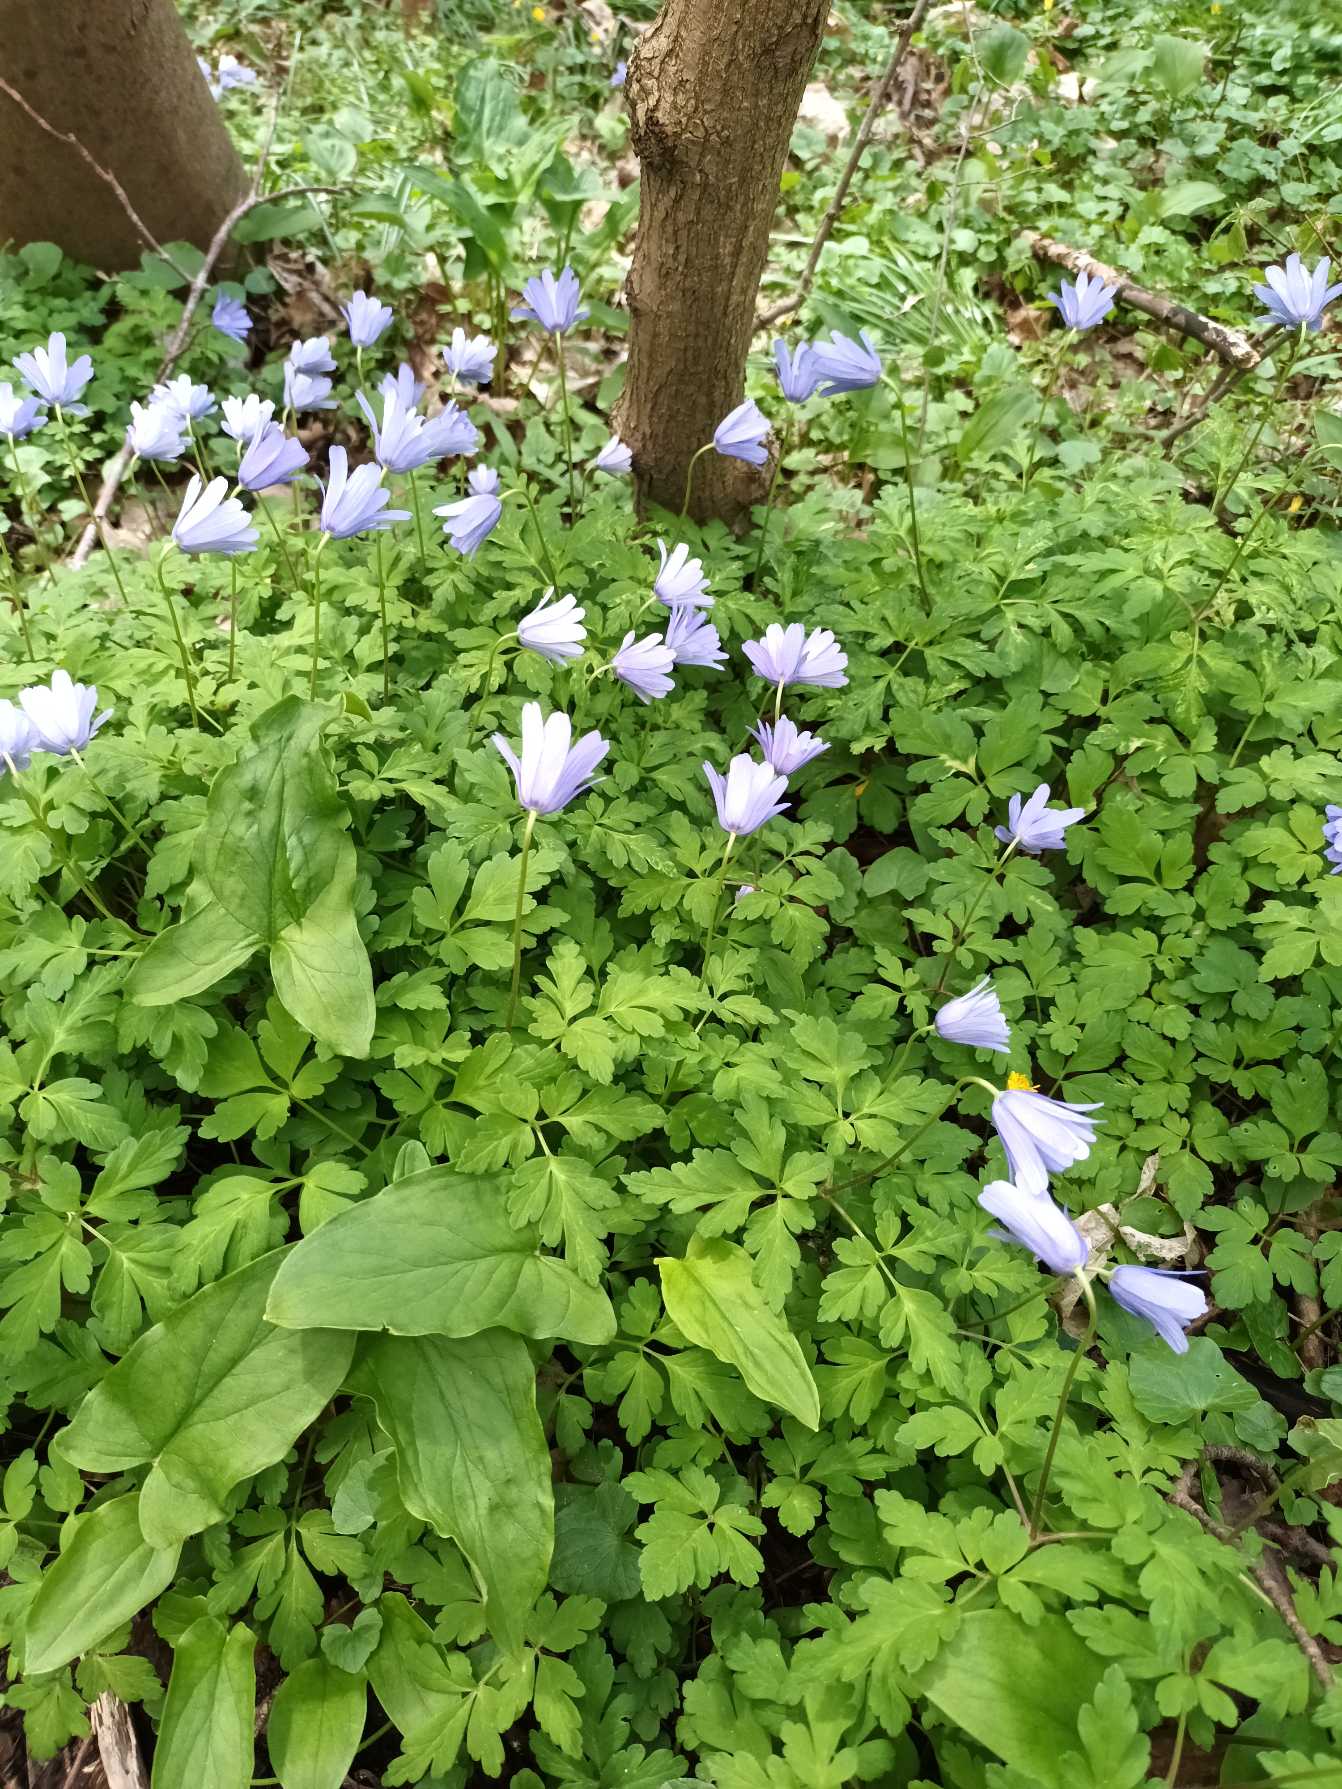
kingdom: Plantae
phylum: Tracheophyta
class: Magnoliopsida
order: Ranunculales
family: Ranunculaceae
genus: Anemone
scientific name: Anemone apennina
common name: Apenniner-anemone
